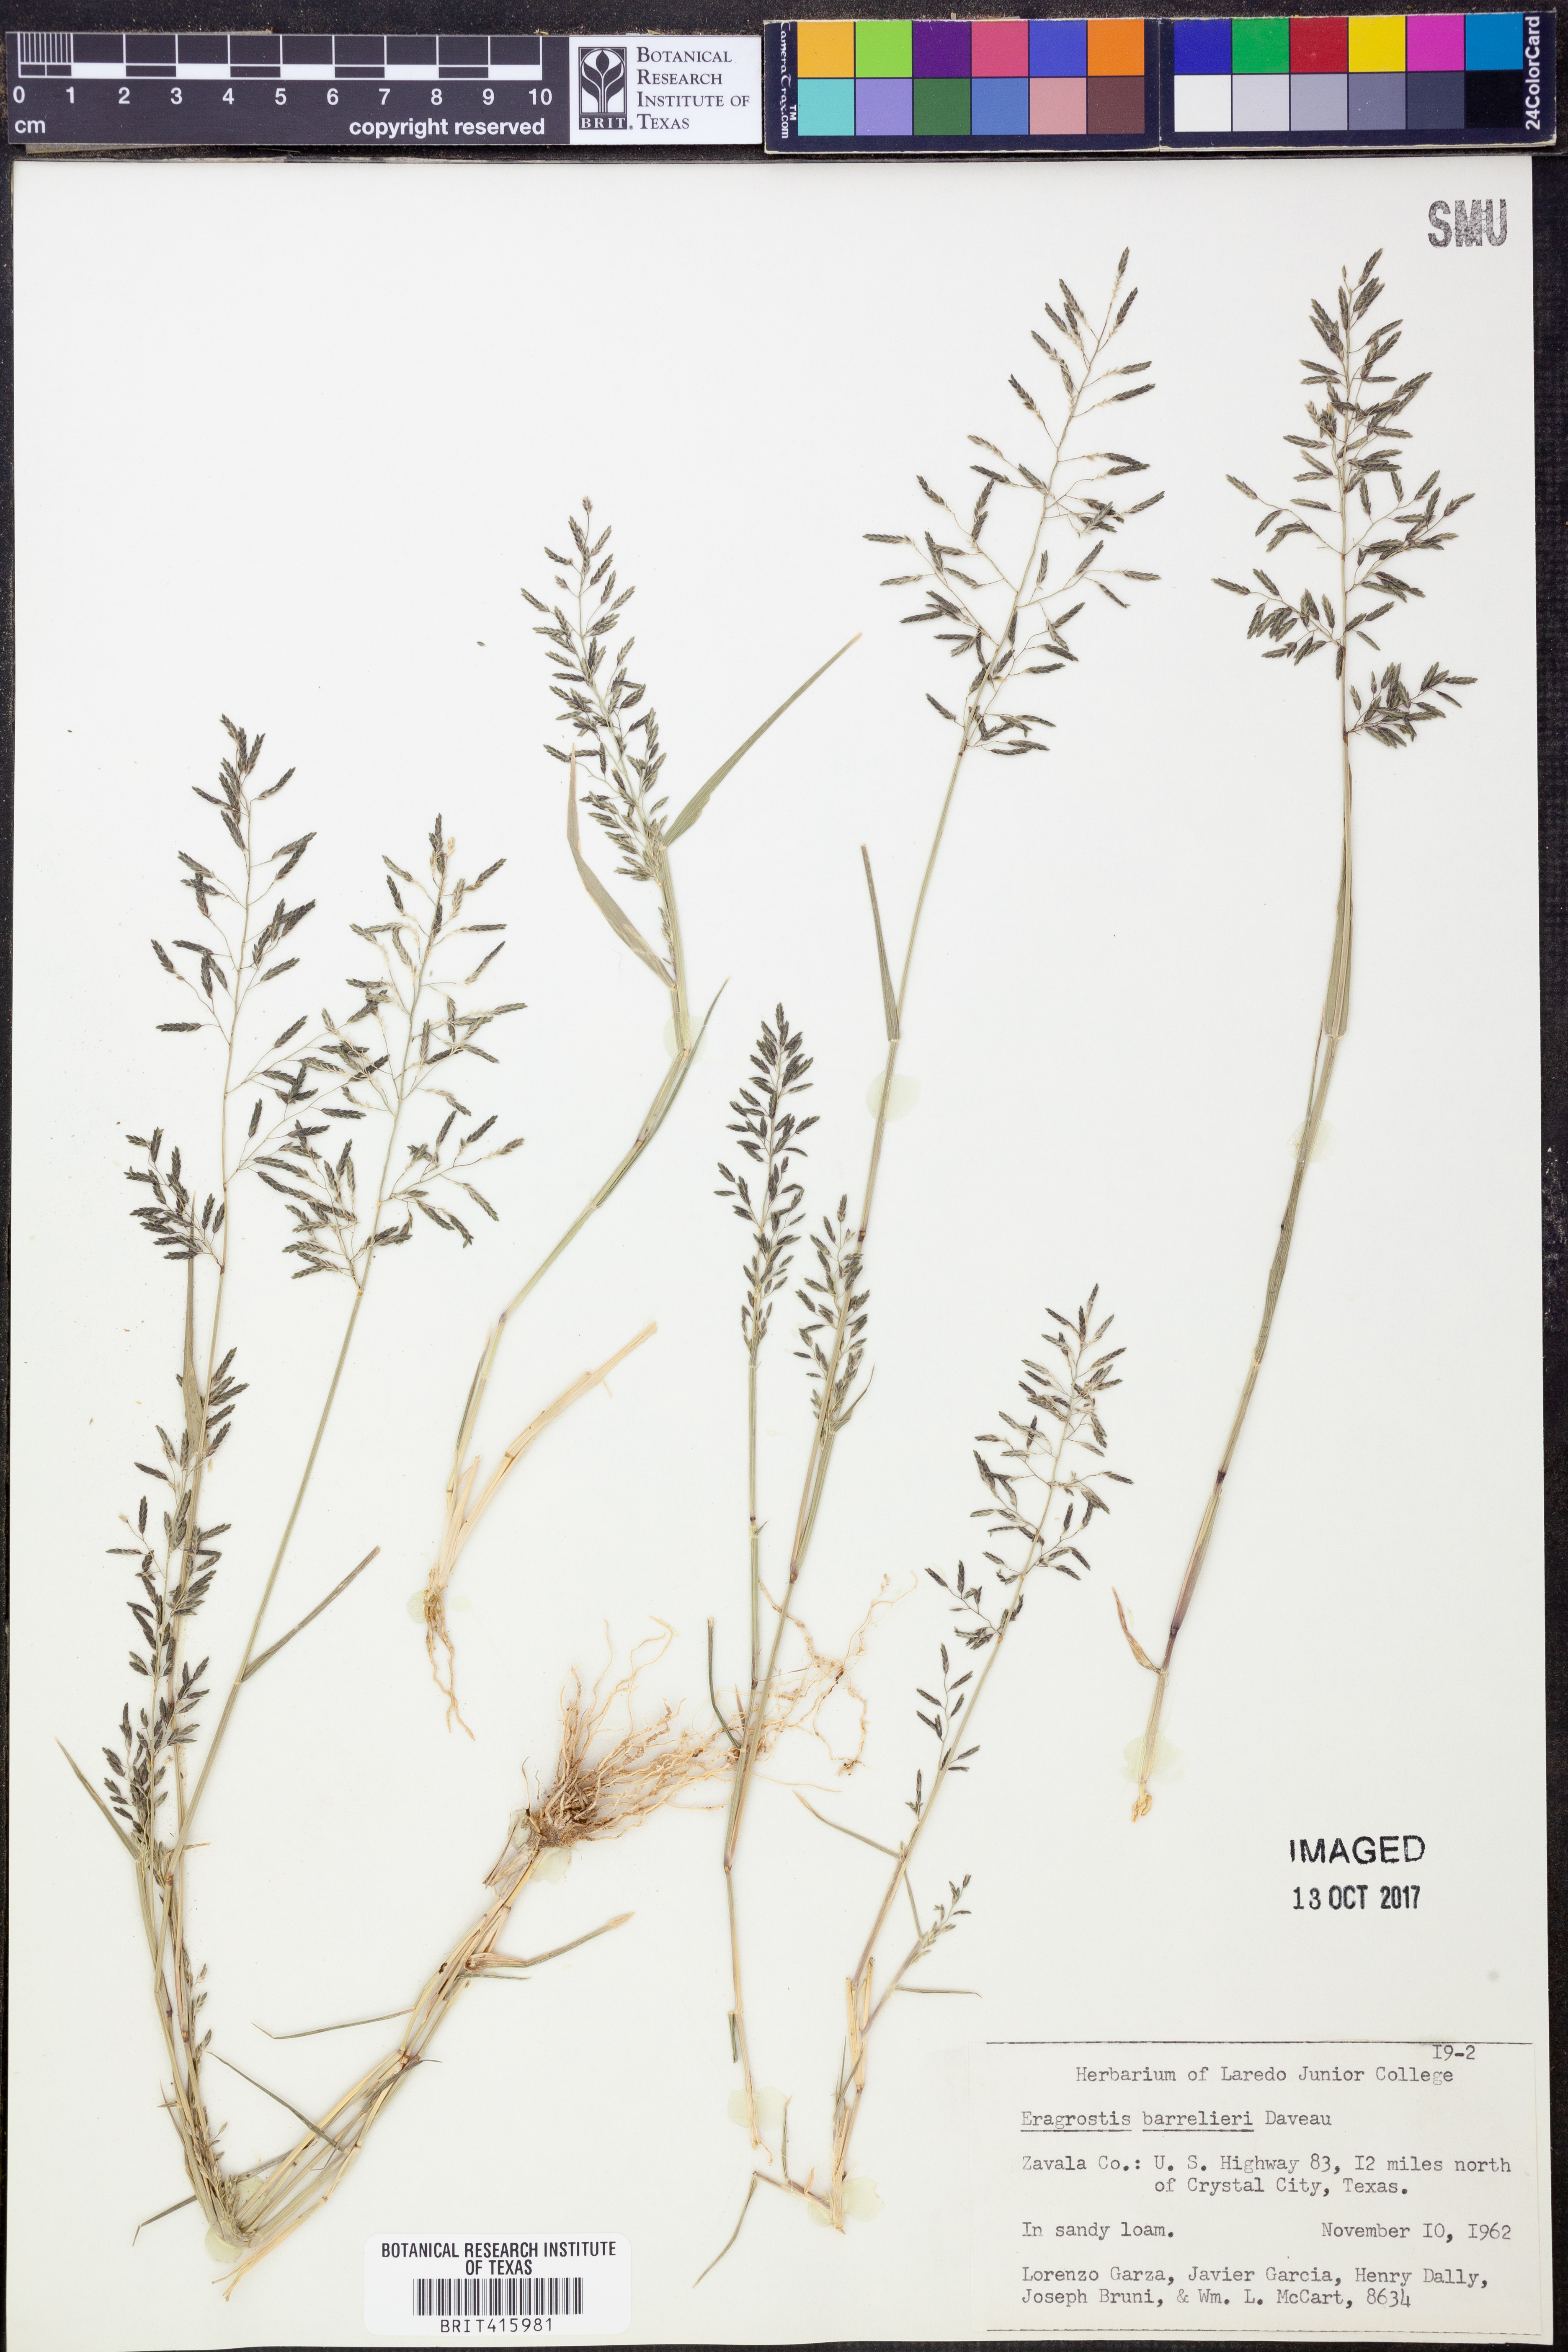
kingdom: Plantae
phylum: Tracheophyta
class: Liliopsida
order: Poales
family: Poaceae
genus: Eragrostis
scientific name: Eragrostis barrelieri
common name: Mediterranean lovegrass
